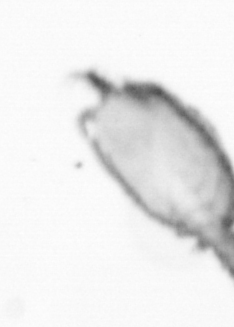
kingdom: Animalia
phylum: Arthropoda
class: Copepoda
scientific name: Copepoda
